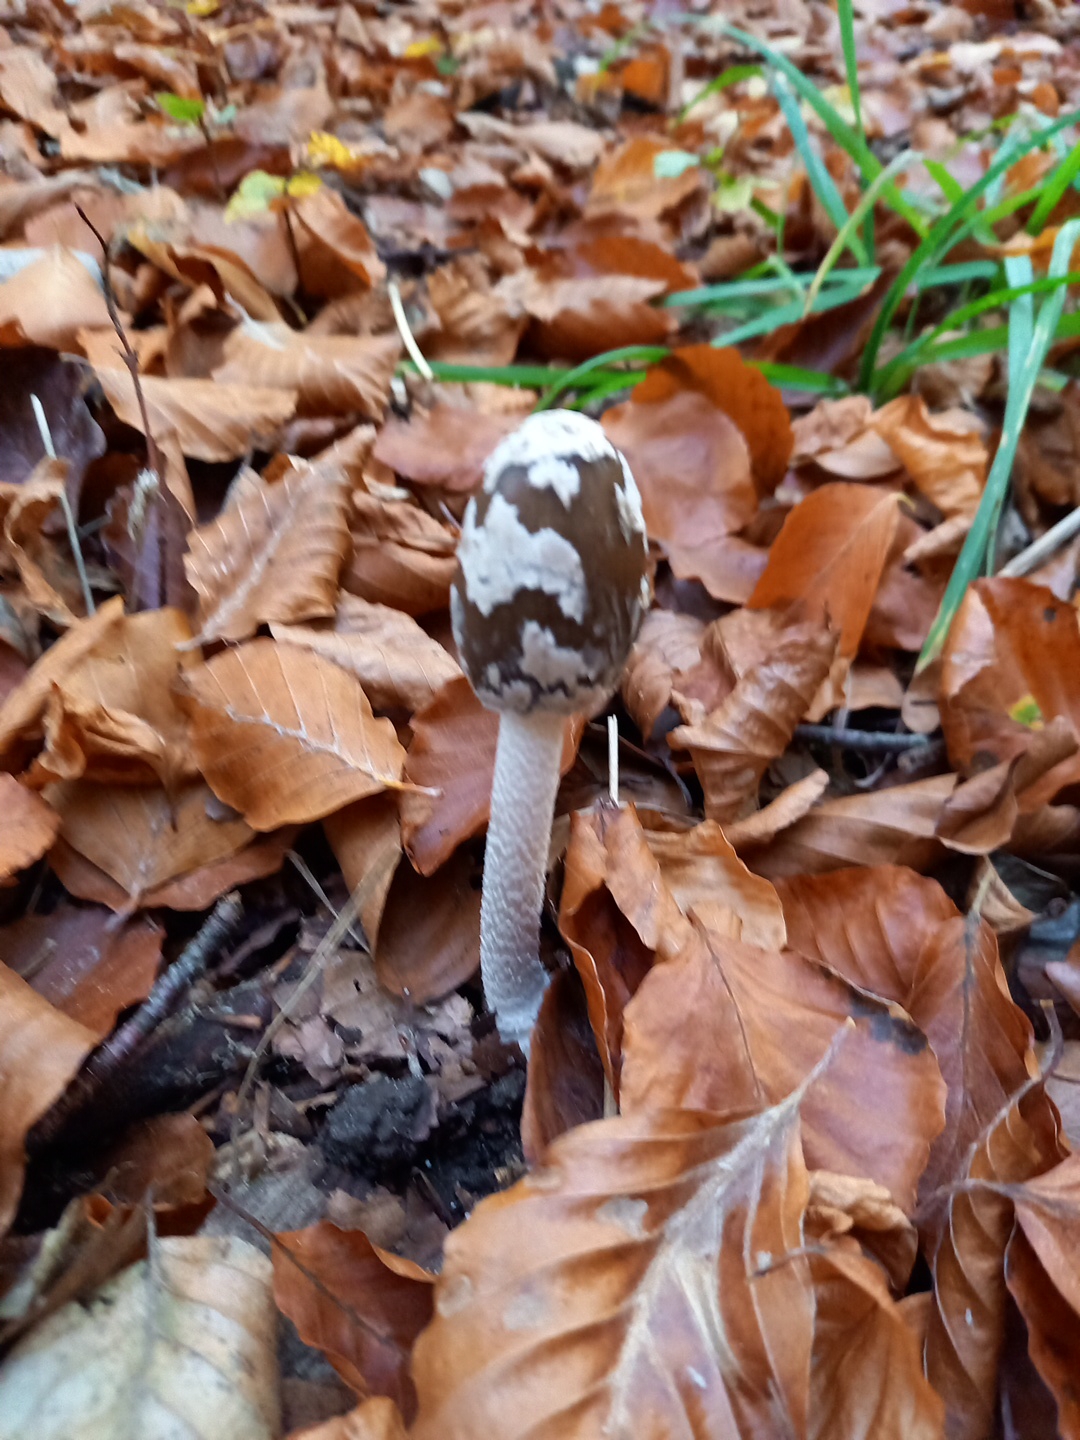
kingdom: Fungi
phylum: Basidiomycota
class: Agaricomycetes
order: Agaricales
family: Psathyrellaceae
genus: Coprinopsis
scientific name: Coprinopsis picacea
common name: skade-blækhat
